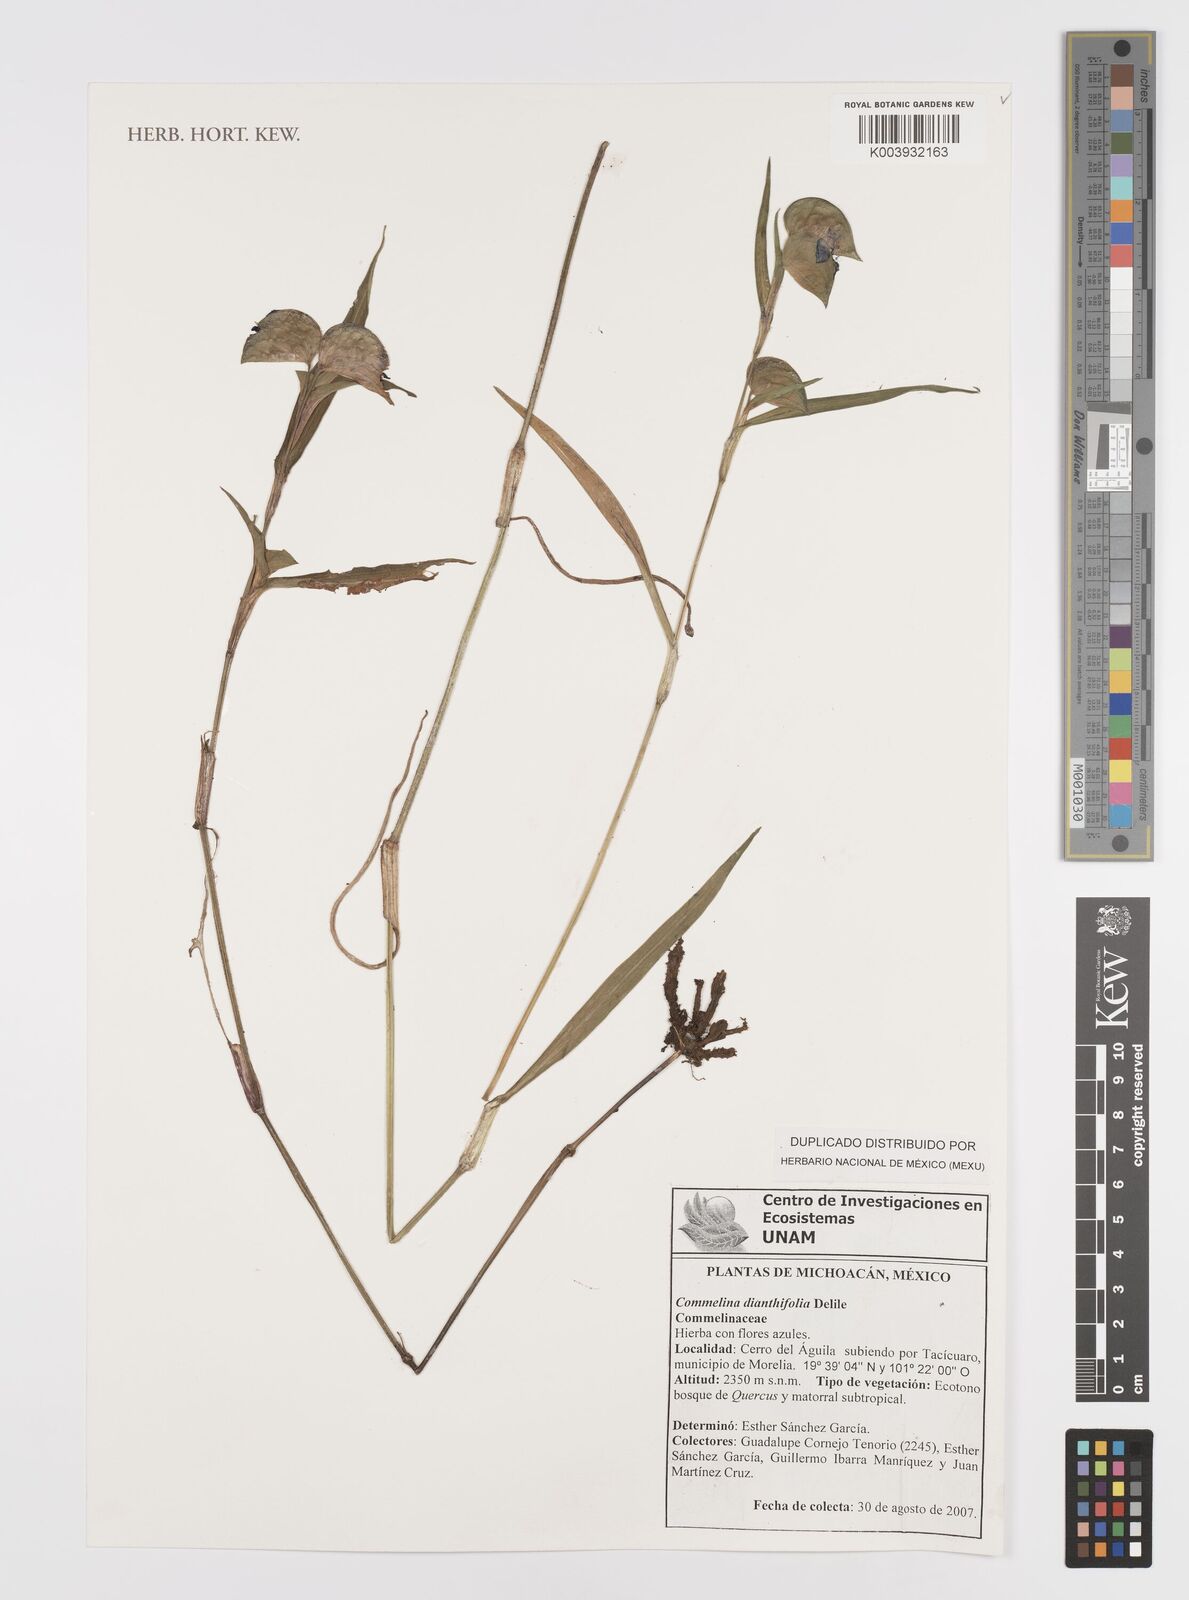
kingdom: Plantae
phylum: Tracheophyta
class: Liliopsida
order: Commelinales
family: Commelinaceae
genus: Commelina
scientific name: Commelina dianthifolia
